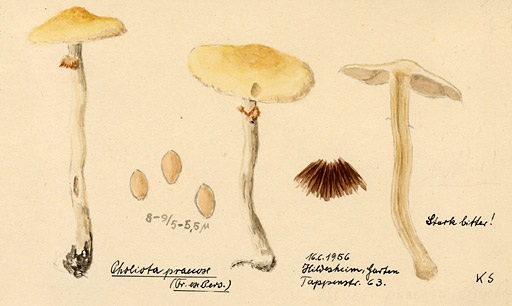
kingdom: Fungi
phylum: Basidiomycota
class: Agaricomycetes
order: Agaricales
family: Strophariaceae
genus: Agrocybe
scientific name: Agrocybe praecox
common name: Spring fieldcap
